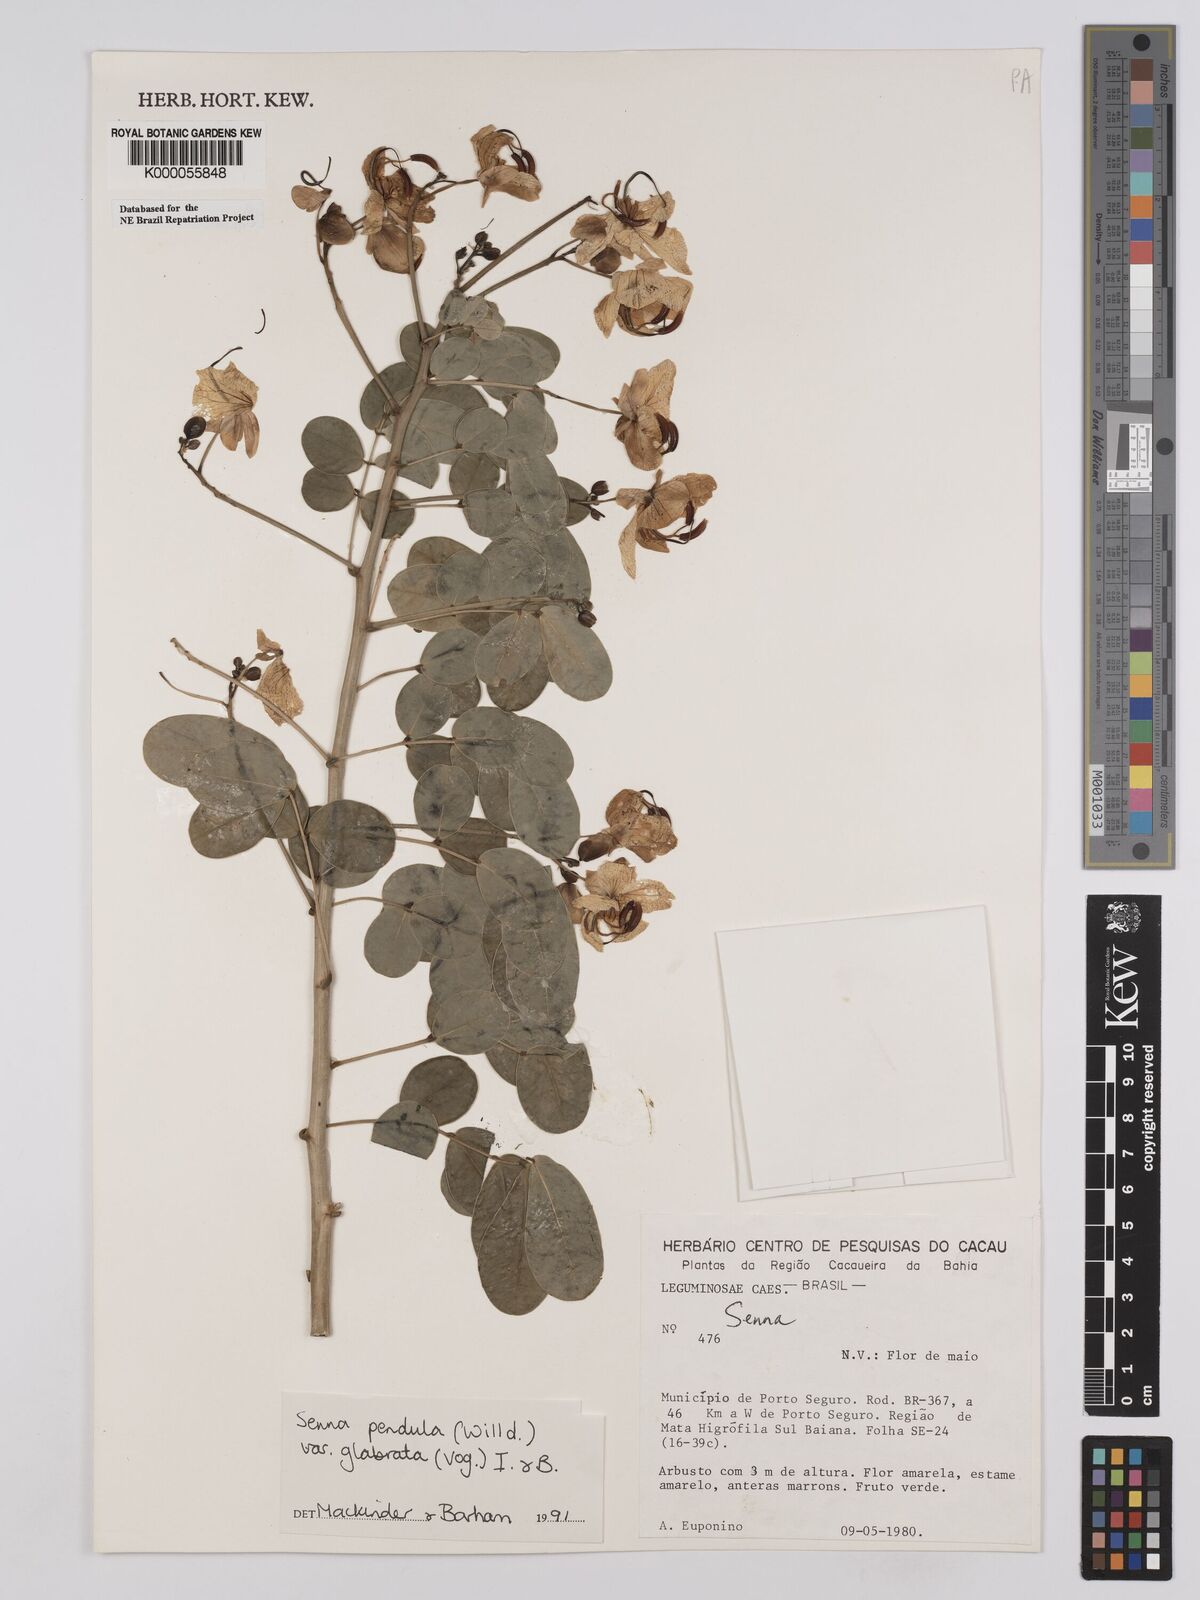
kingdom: Plantae
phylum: Tracheophyta
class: Magnoliopsida
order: Fabales
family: Fabaceae
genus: Senna
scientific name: Senna pendula
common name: Easter cassia
